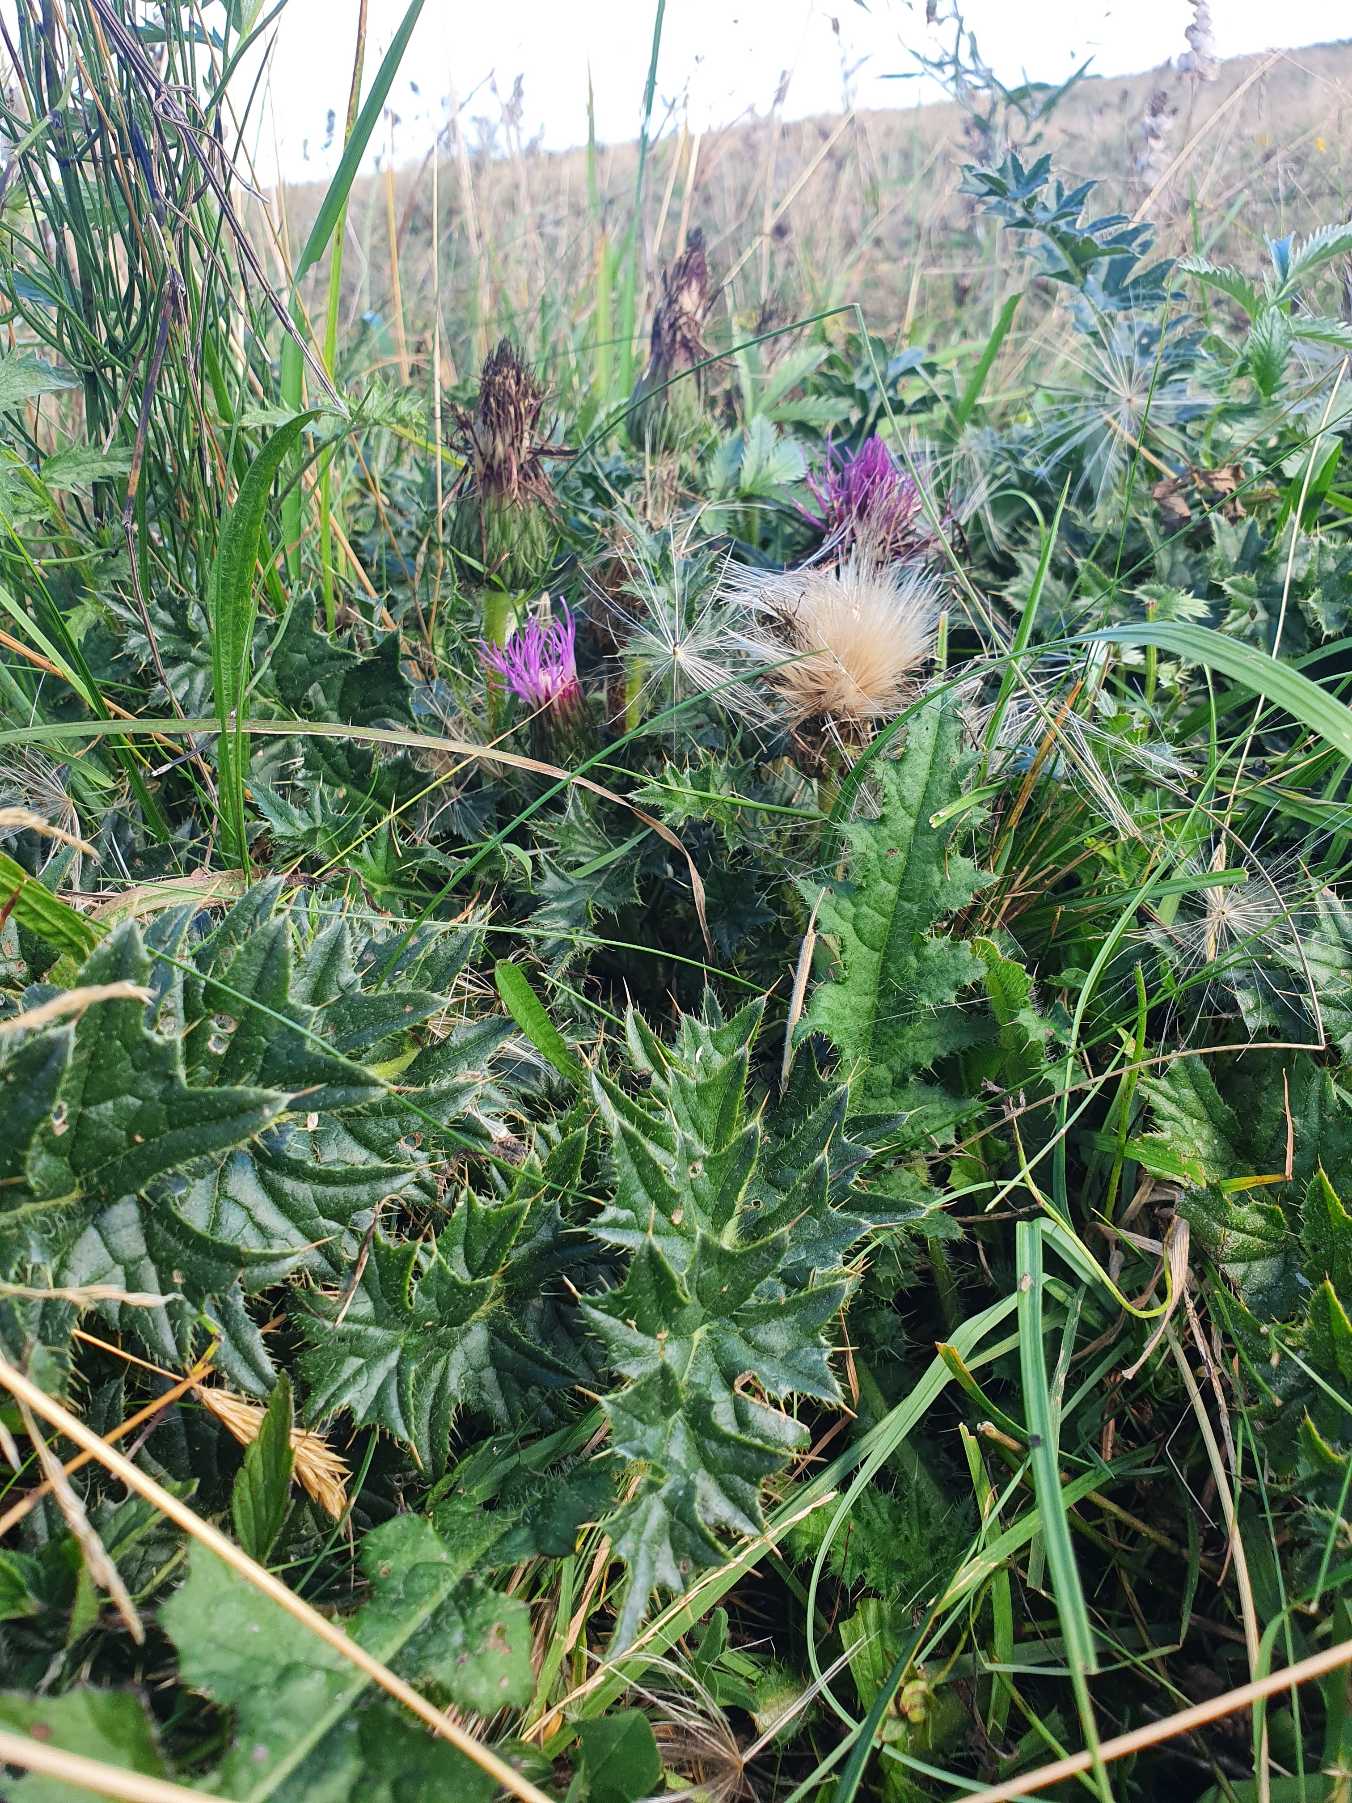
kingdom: Plantae
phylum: Tracheophyta
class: Magnoliopsida
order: Asterales
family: Asteraceae
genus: Cirsium
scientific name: Cirsium acaule
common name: Lav tidsel
